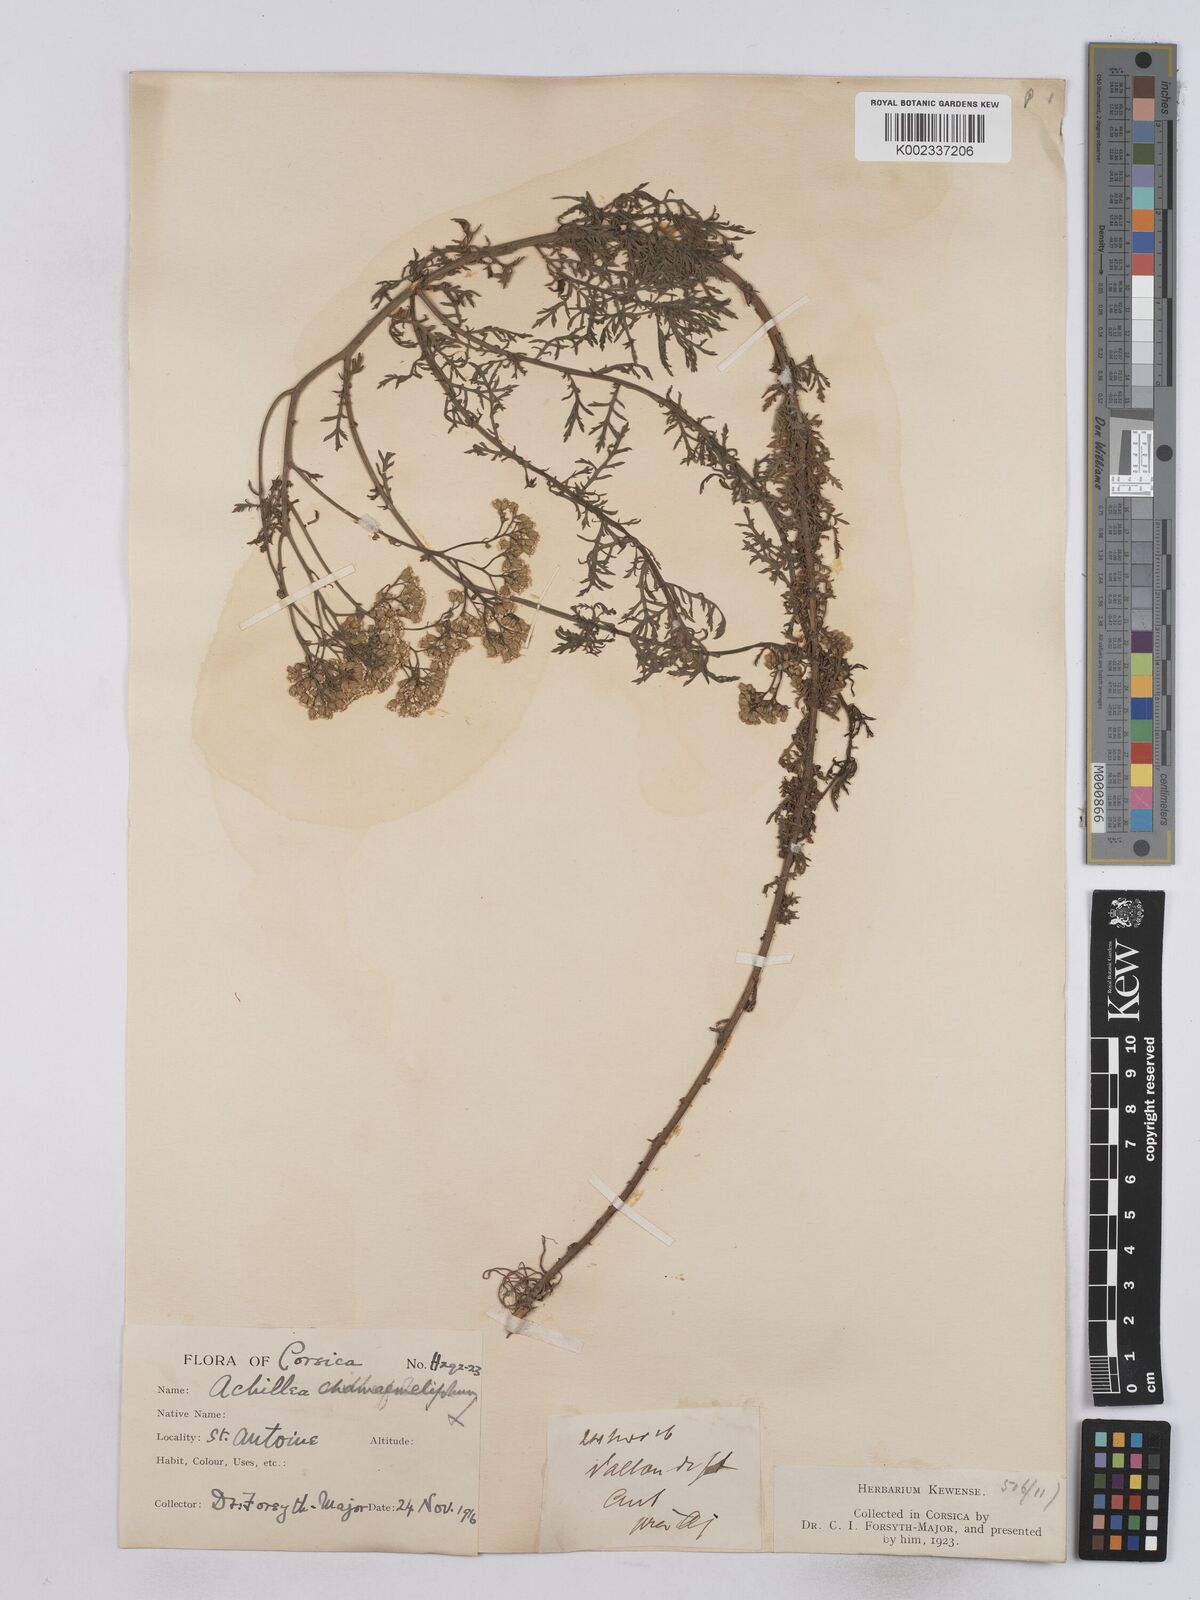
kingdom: Plantae
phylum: Tracheophyta
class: Magnoliopsida
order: Asterales
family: Asteraceae
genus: Achillea
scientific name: Achillea chamaemelifolia
